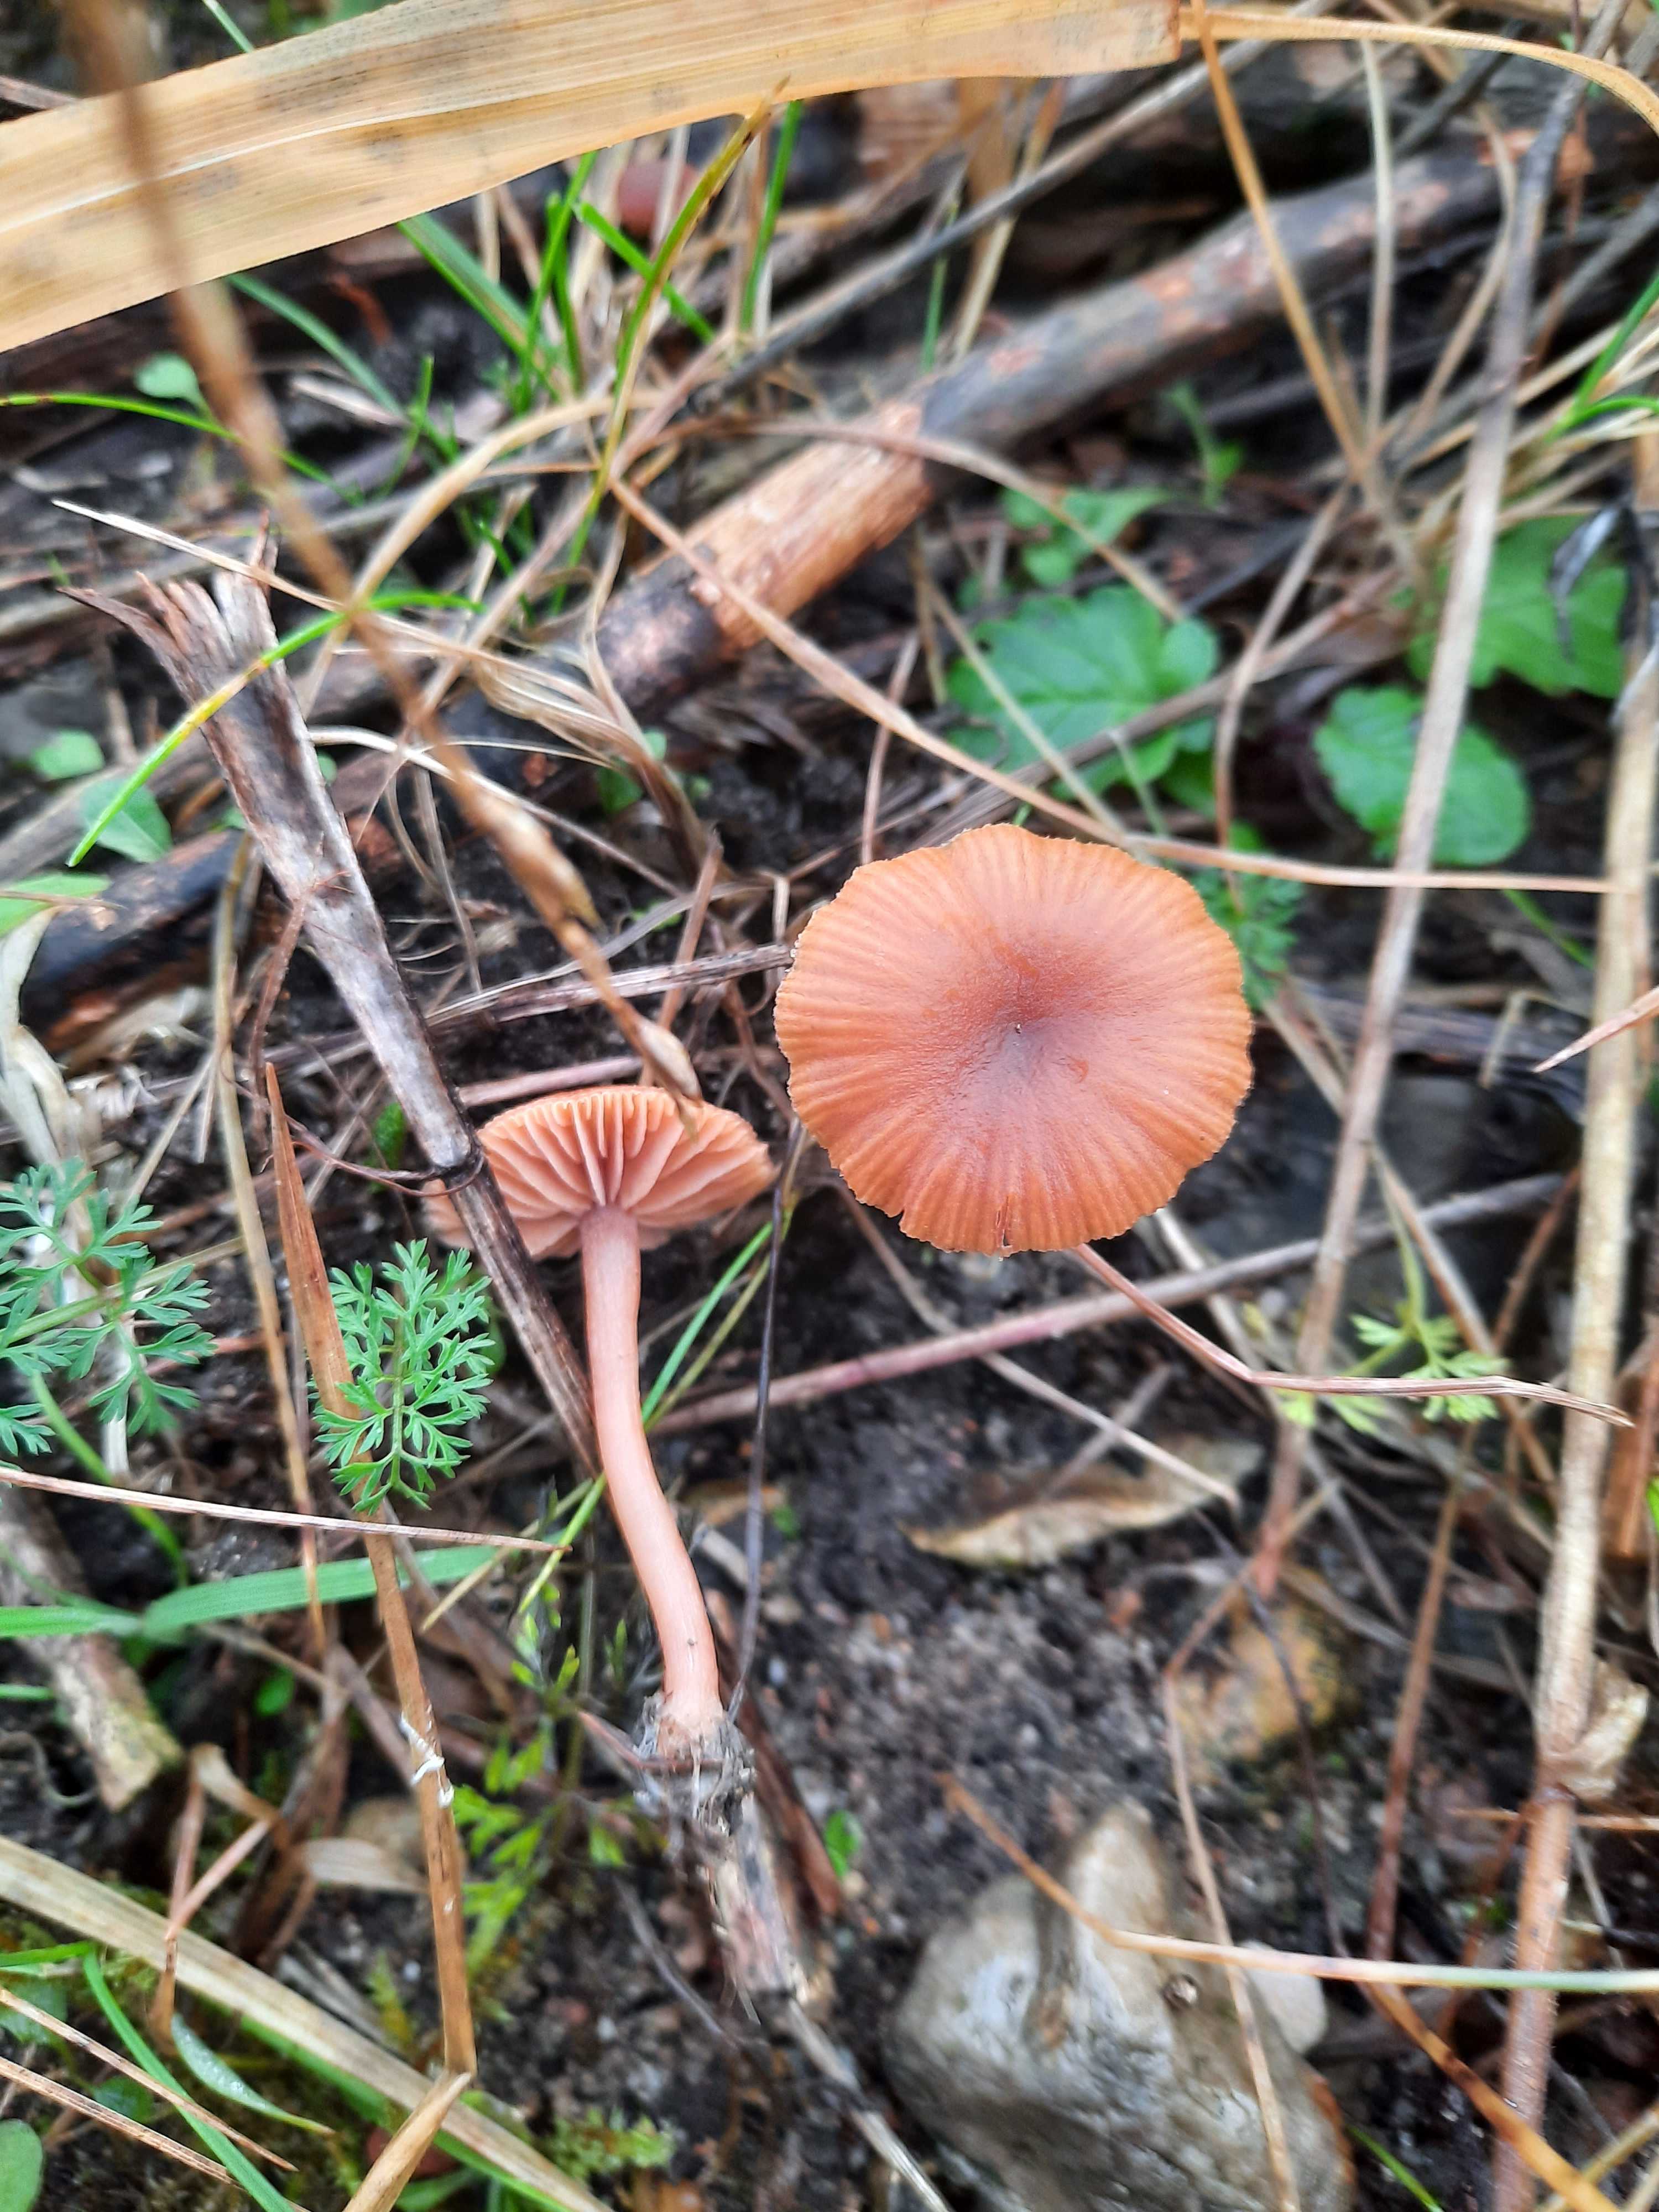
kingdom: Fungi
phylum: Basidiomycota
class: Agaricomycetes
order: Agaricales
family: Tubariaceae
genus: Tubaria
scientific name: Tubaria furfuracea
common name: kliddet fnughat
